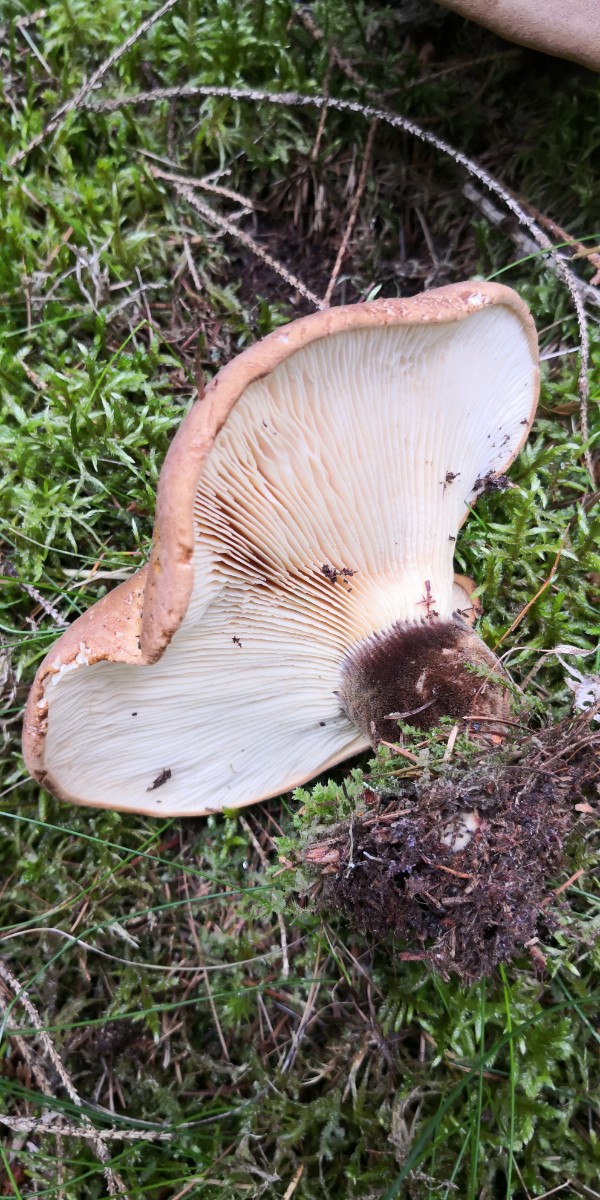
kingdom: Fungi
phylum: Basidiomycota
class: Agaricomycetes
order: Boletales
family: Tapinellaceae
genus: Tapinella
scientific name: Tapinella atrotomentosa
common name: sortfiltet viftesvamp
